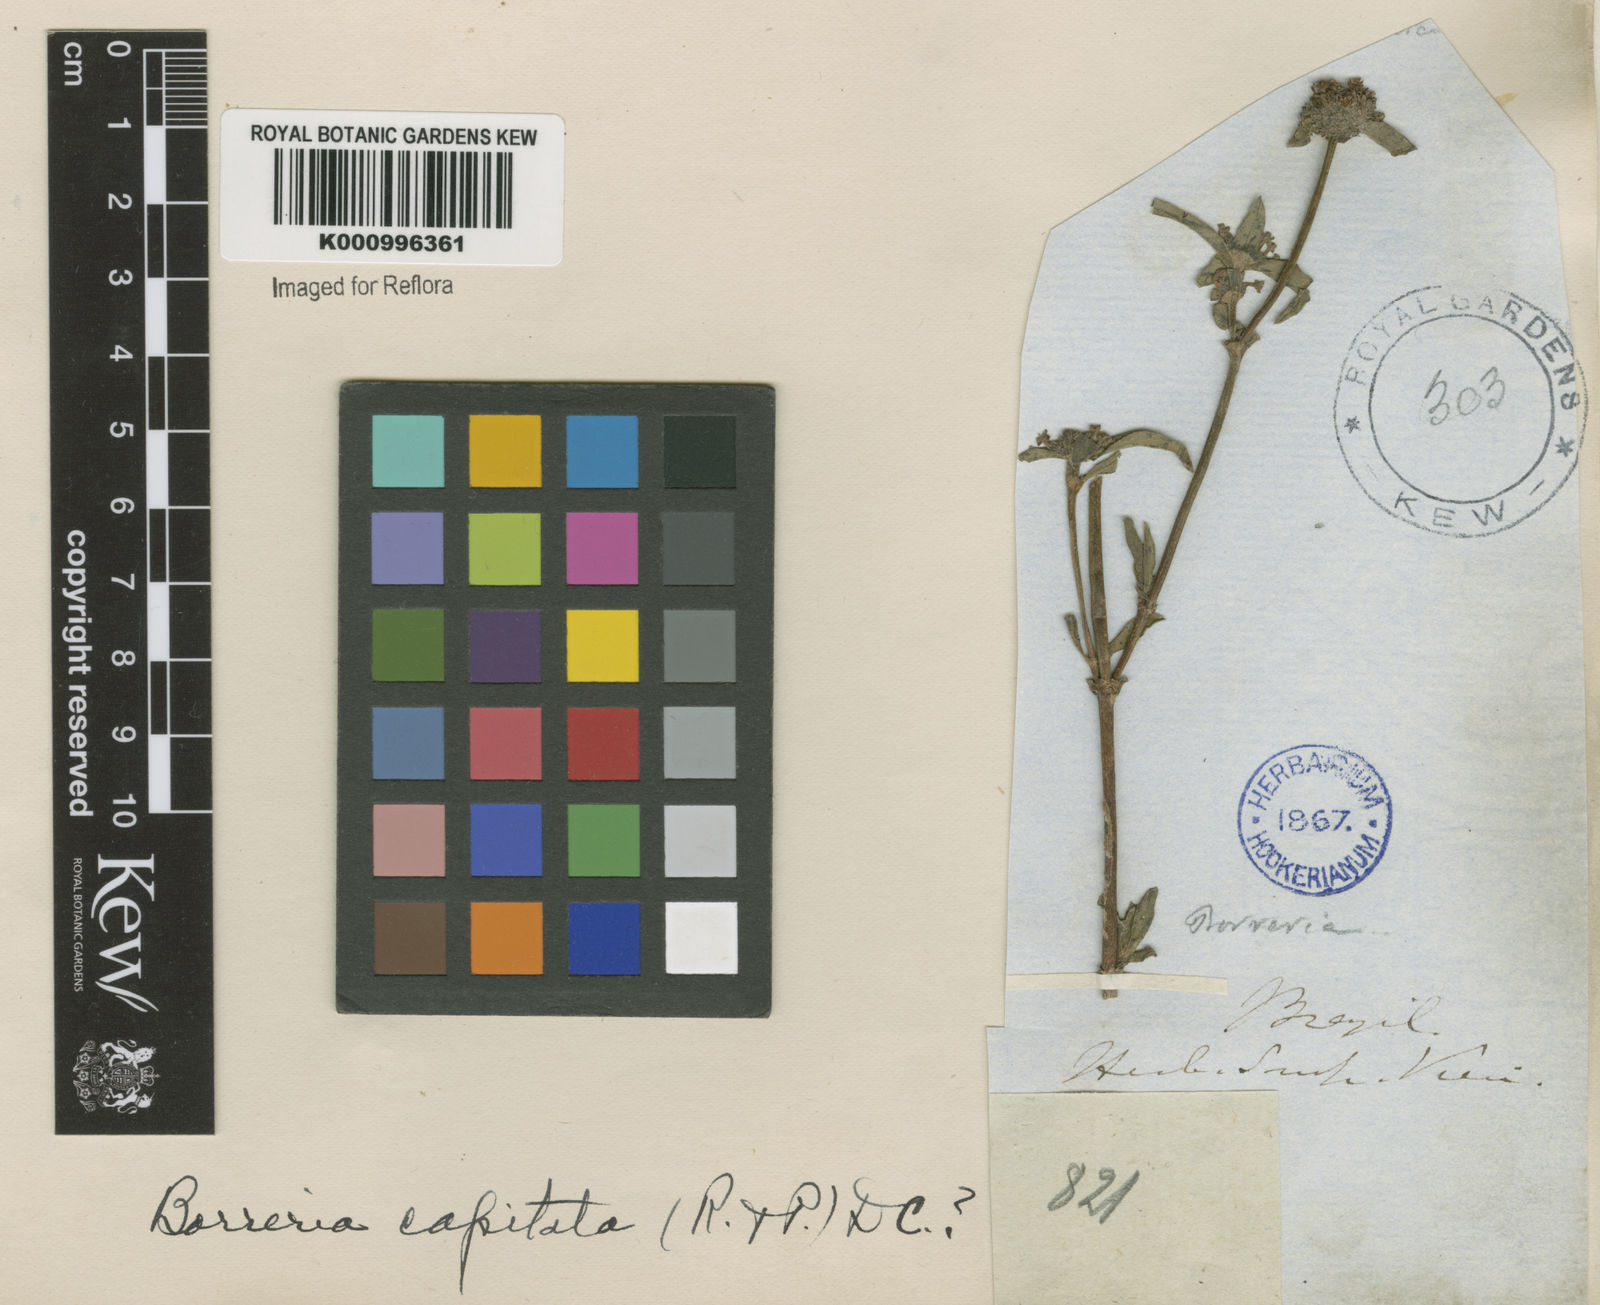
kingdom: Plantae
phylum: Tracheophyta
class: Magnoliopsida
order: Gentianales
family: Rubiaceae
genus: Spermacoce
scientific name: Spermacoce capitata
